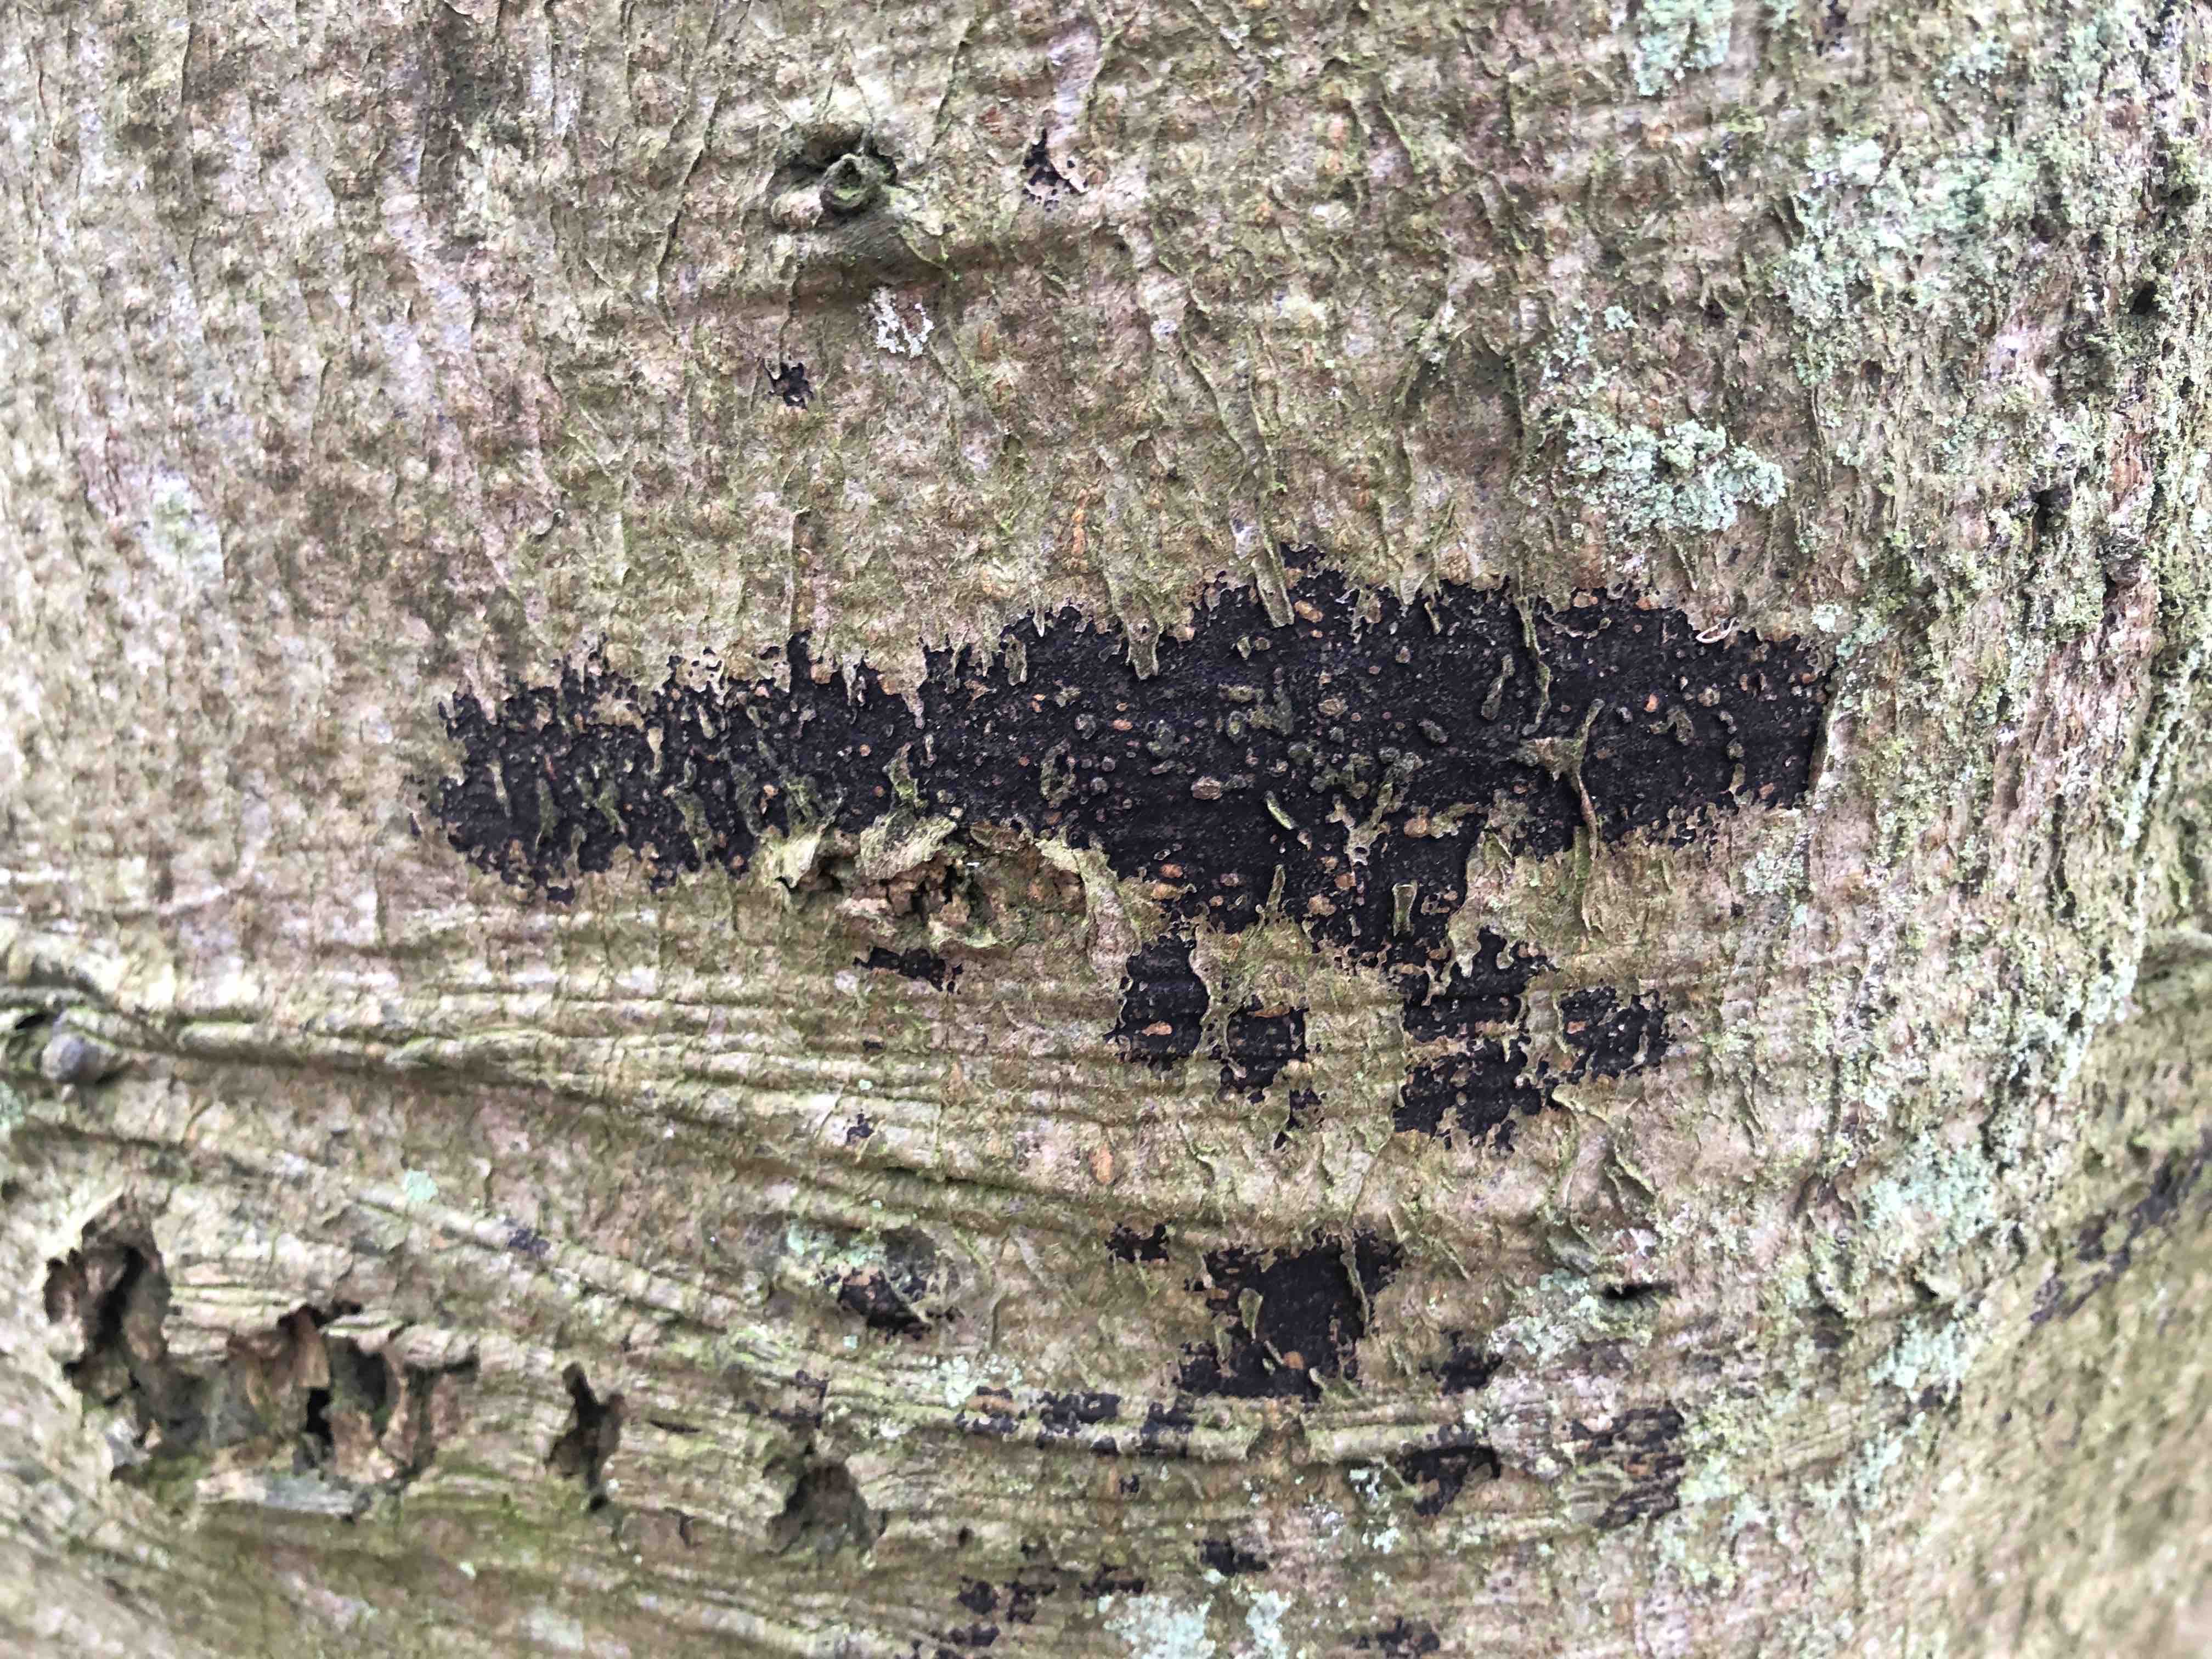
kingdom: Fungi
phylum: Ascomycota
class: Leotiomycetes
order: Rhytismatales
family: Ascodichaenaceae
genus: Ascodichaena
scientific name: Ascodichaena rugosa
